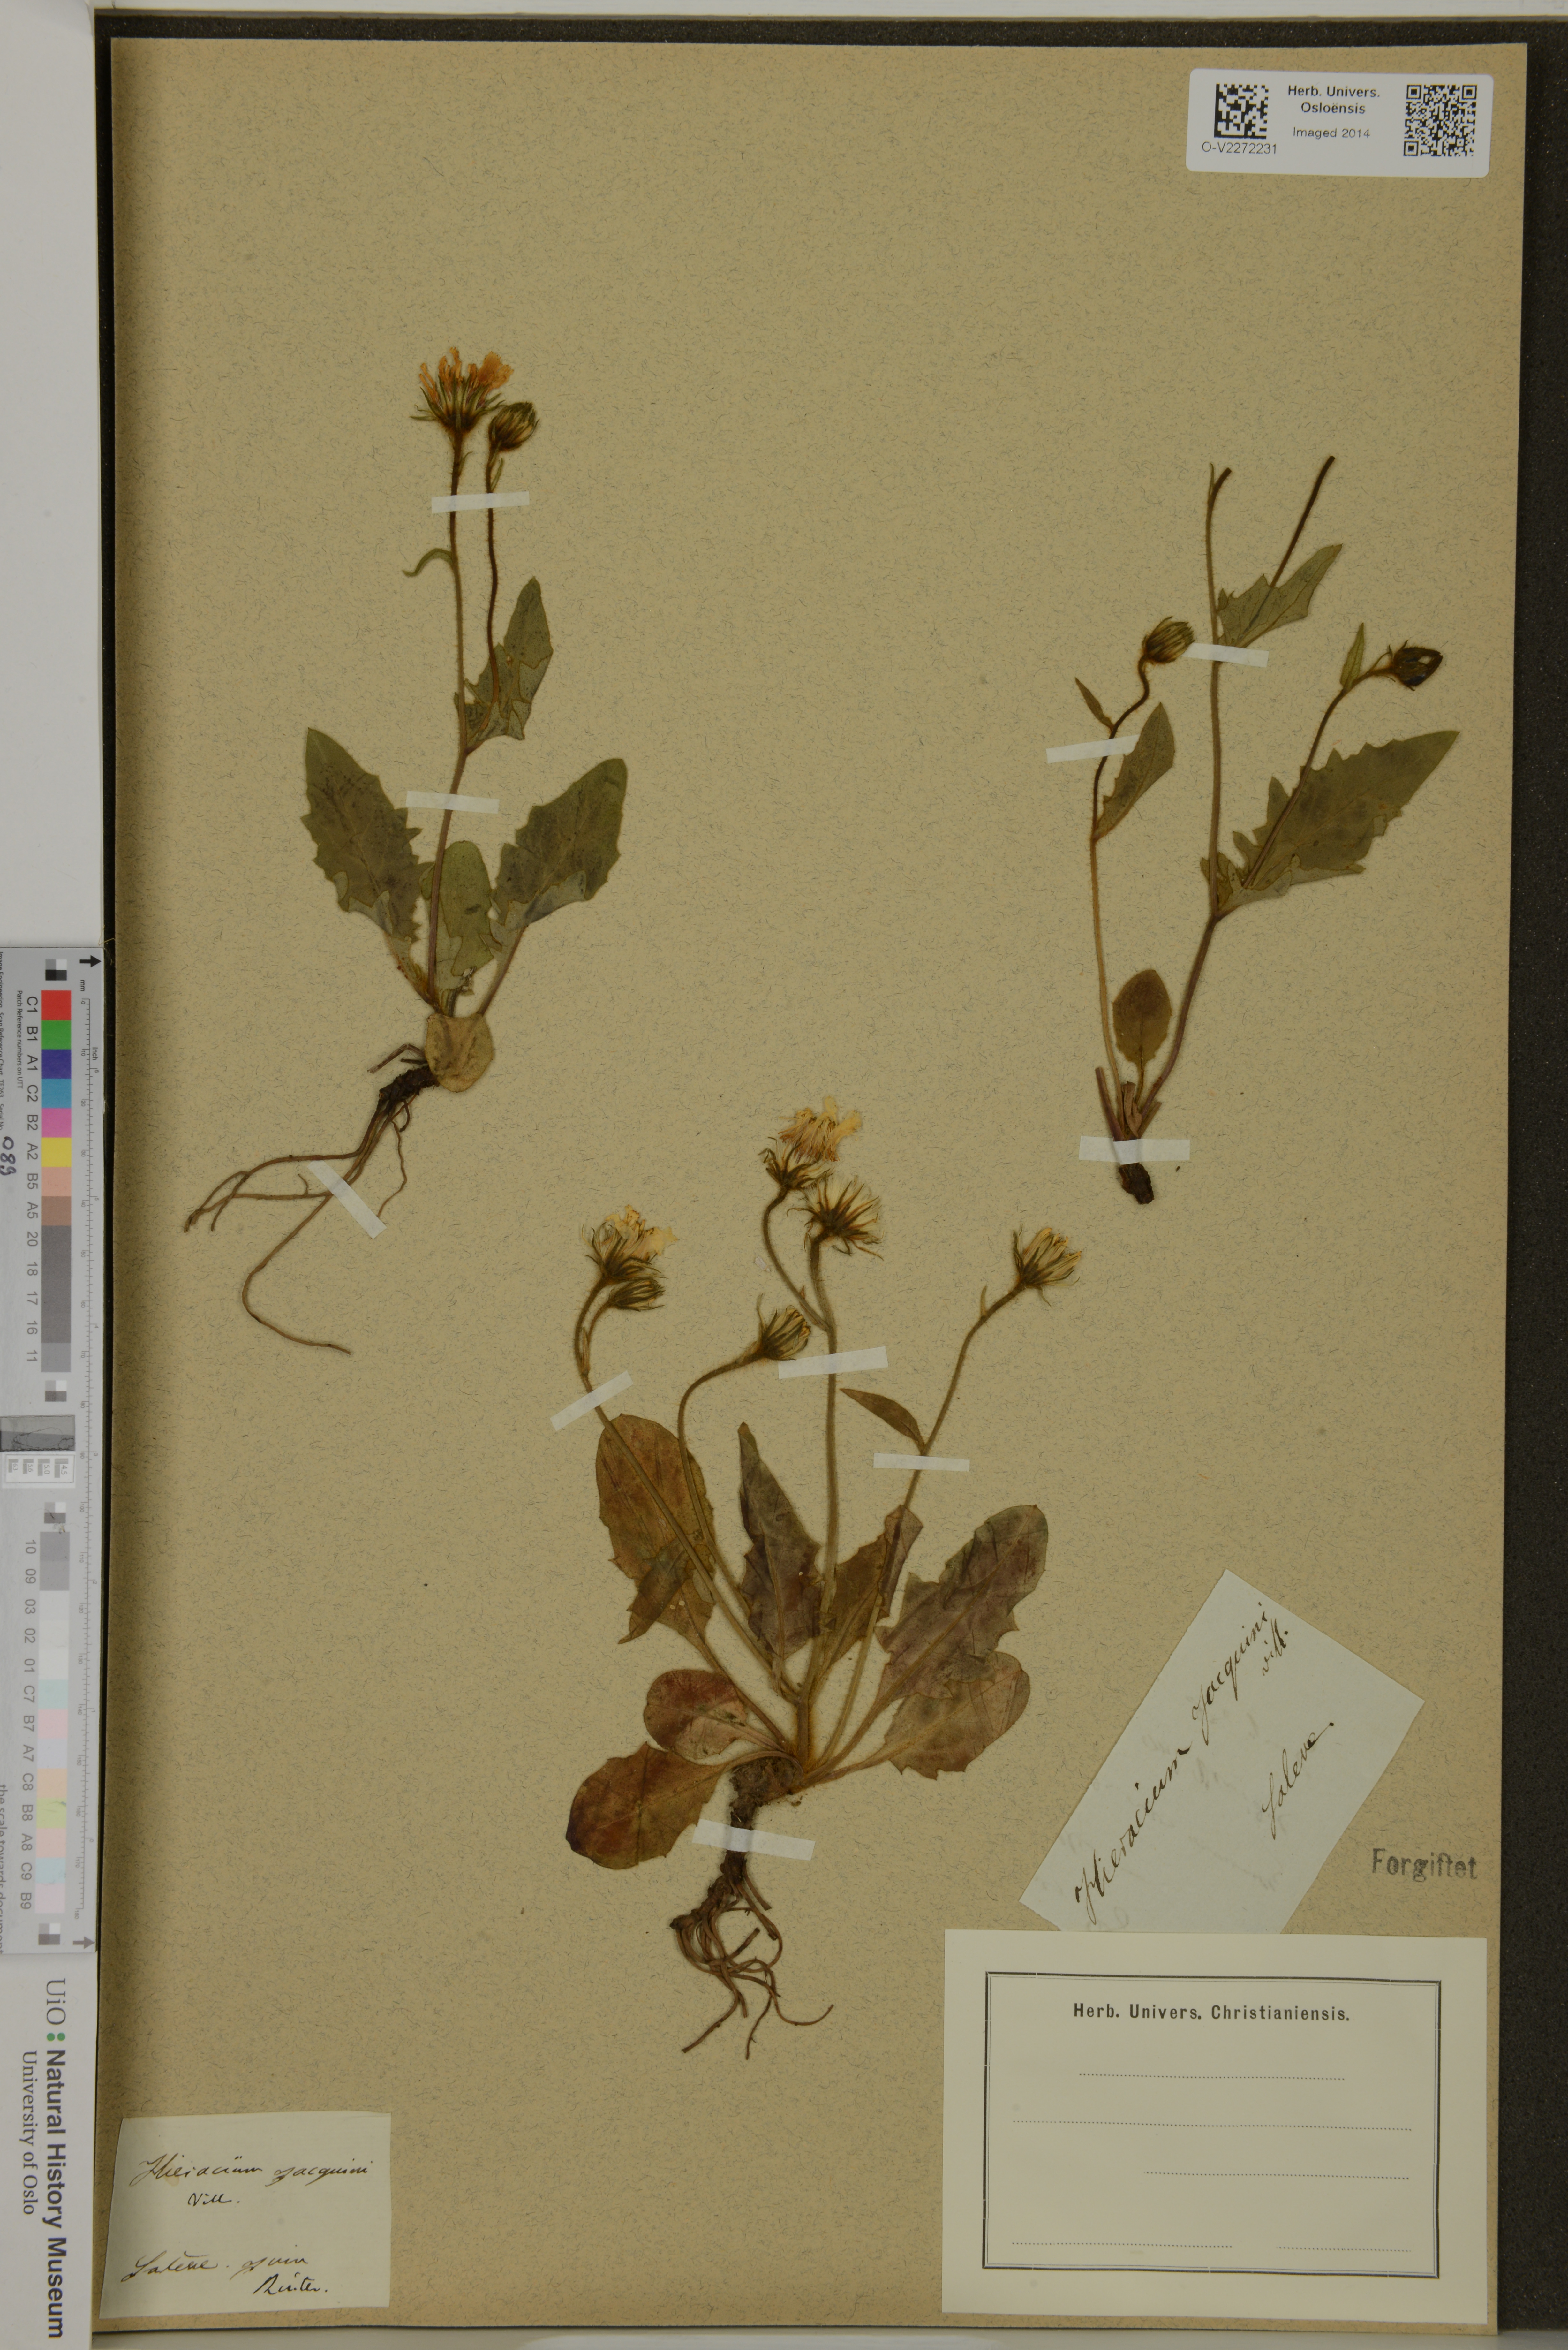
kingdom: Plantae
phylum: Tracheophyta
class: Magnoliopsida
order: Asterales
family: Asteraceae
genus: Hieracium
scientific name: Hieracium jacquinii
